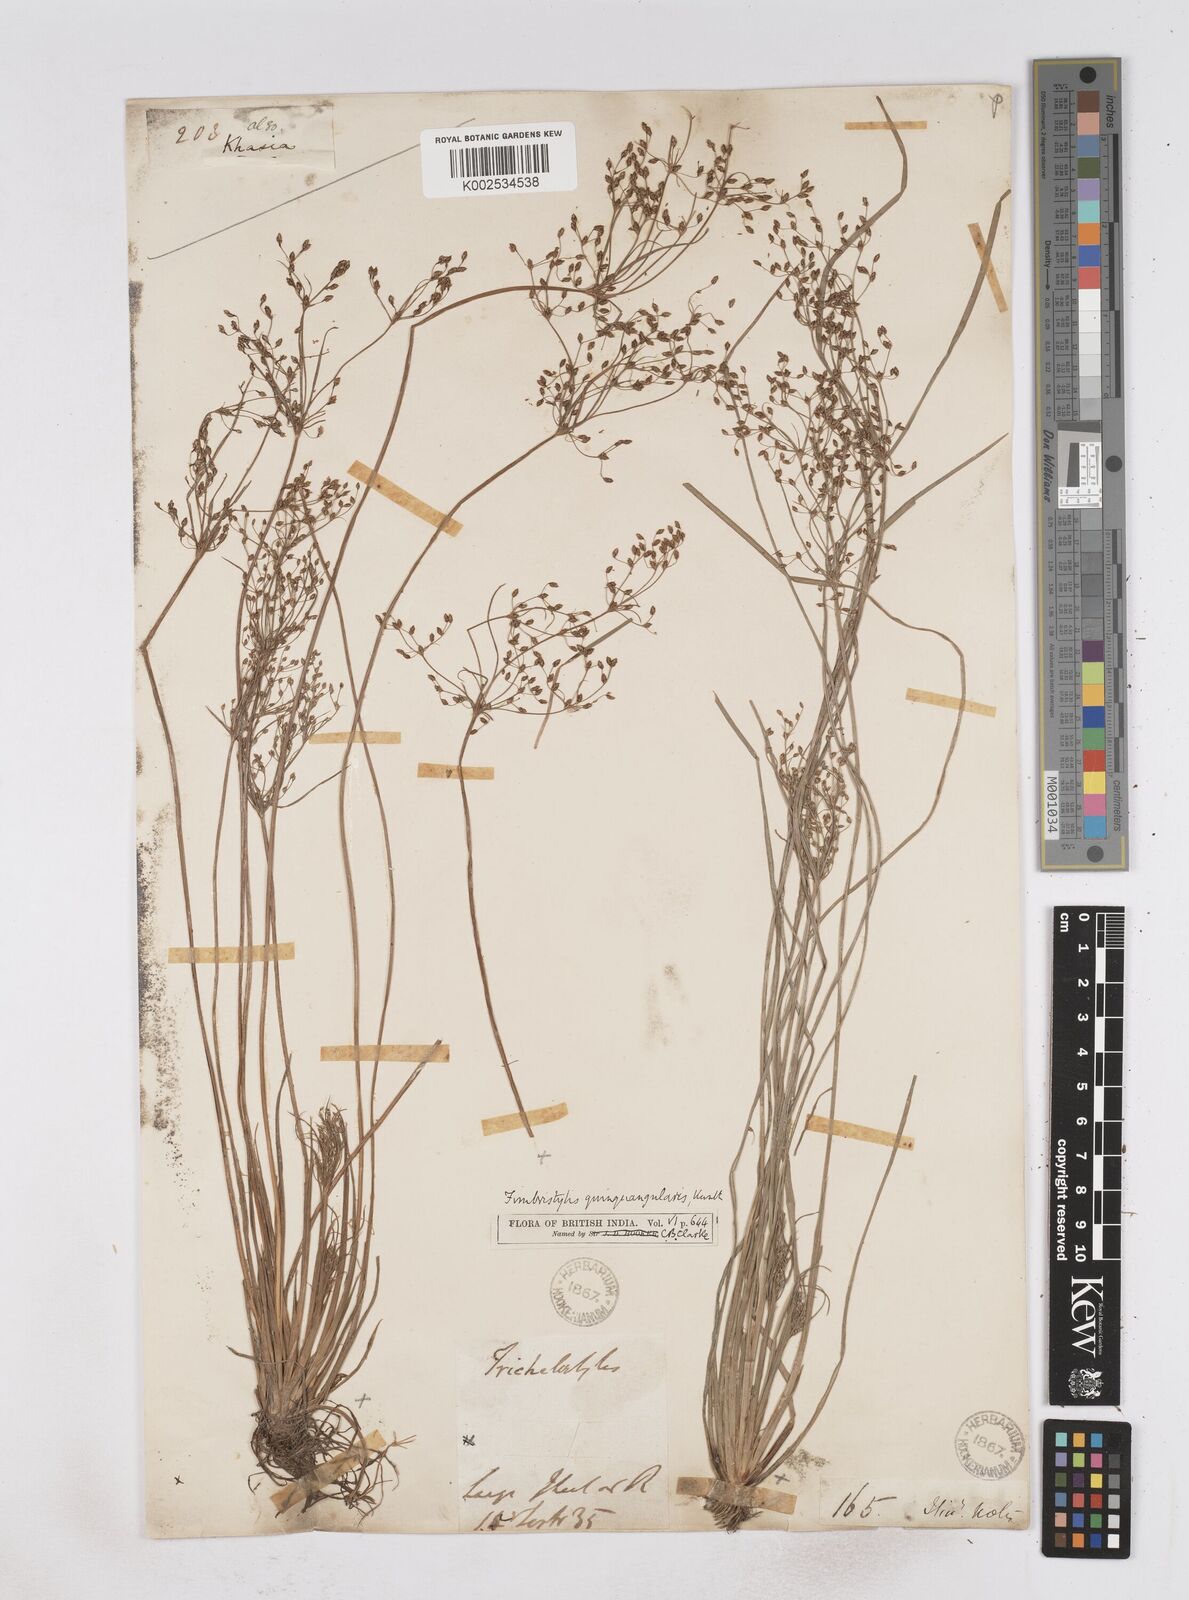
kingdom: Plantae
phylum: Tracheophyta
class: Liliopsida
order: Poales
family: Cyperaceae
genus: Fimbristylis
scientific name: Fimbristylis quinquangularis
